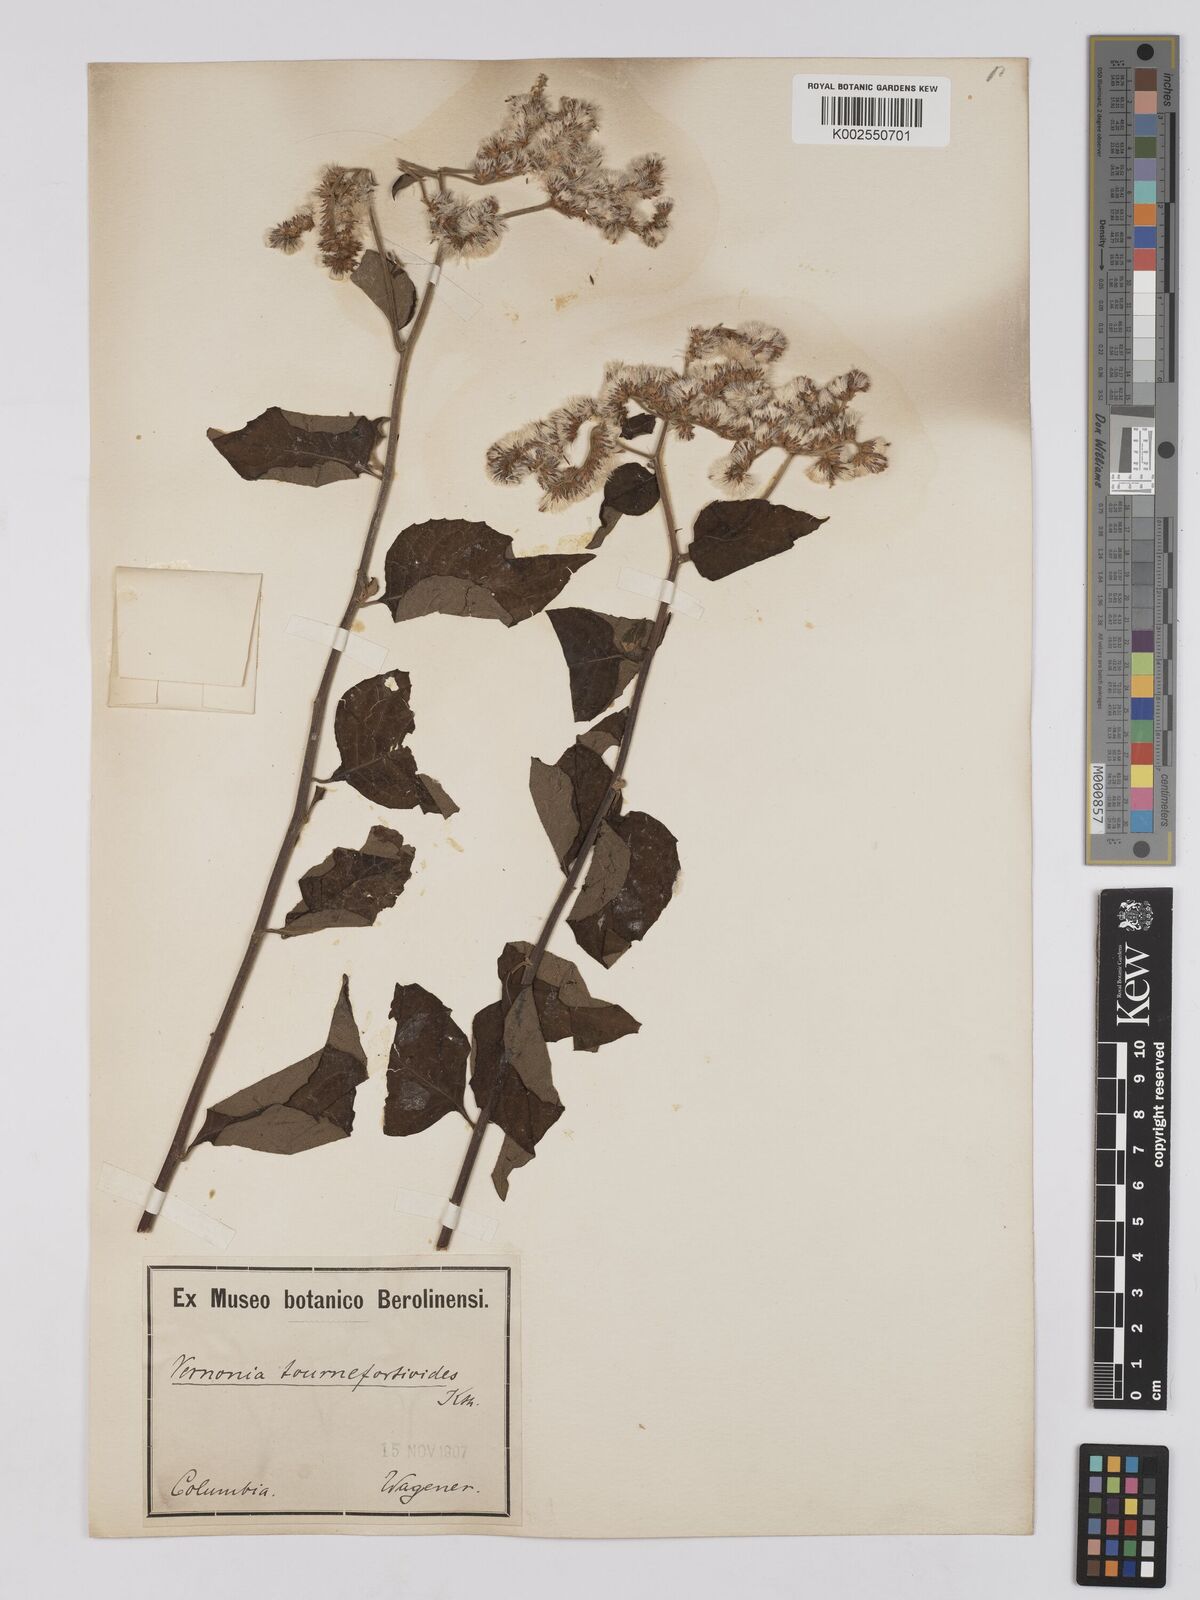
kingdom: Plantae
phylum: Tracheophyta
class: Magnoliopsida
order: Asterales
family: Asteraceae
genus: Cyrtocymura
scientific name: Cyrtocymura scorpioides
